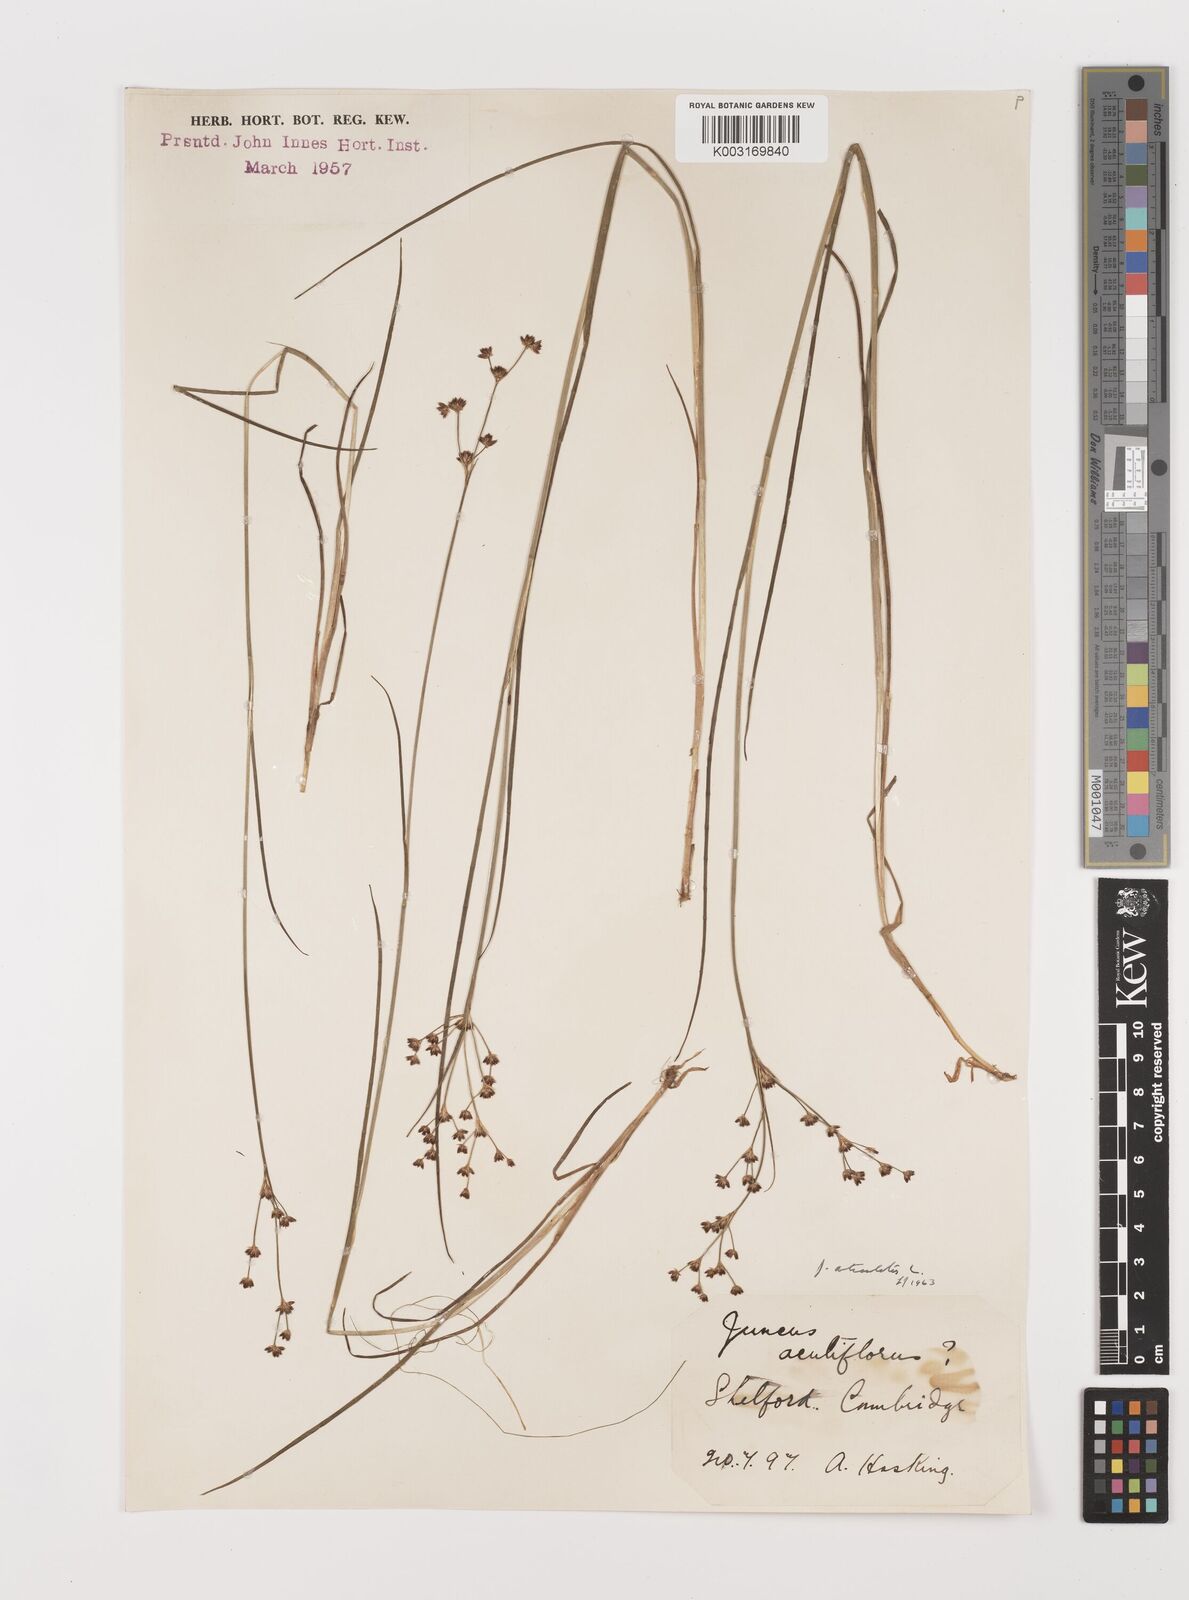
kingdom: Plantae
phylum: Tracheophyta
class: Liliopsida
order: Poales
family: Juncaceae
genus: Juncus
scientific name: Juncus articulatus
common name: Jointed rush
